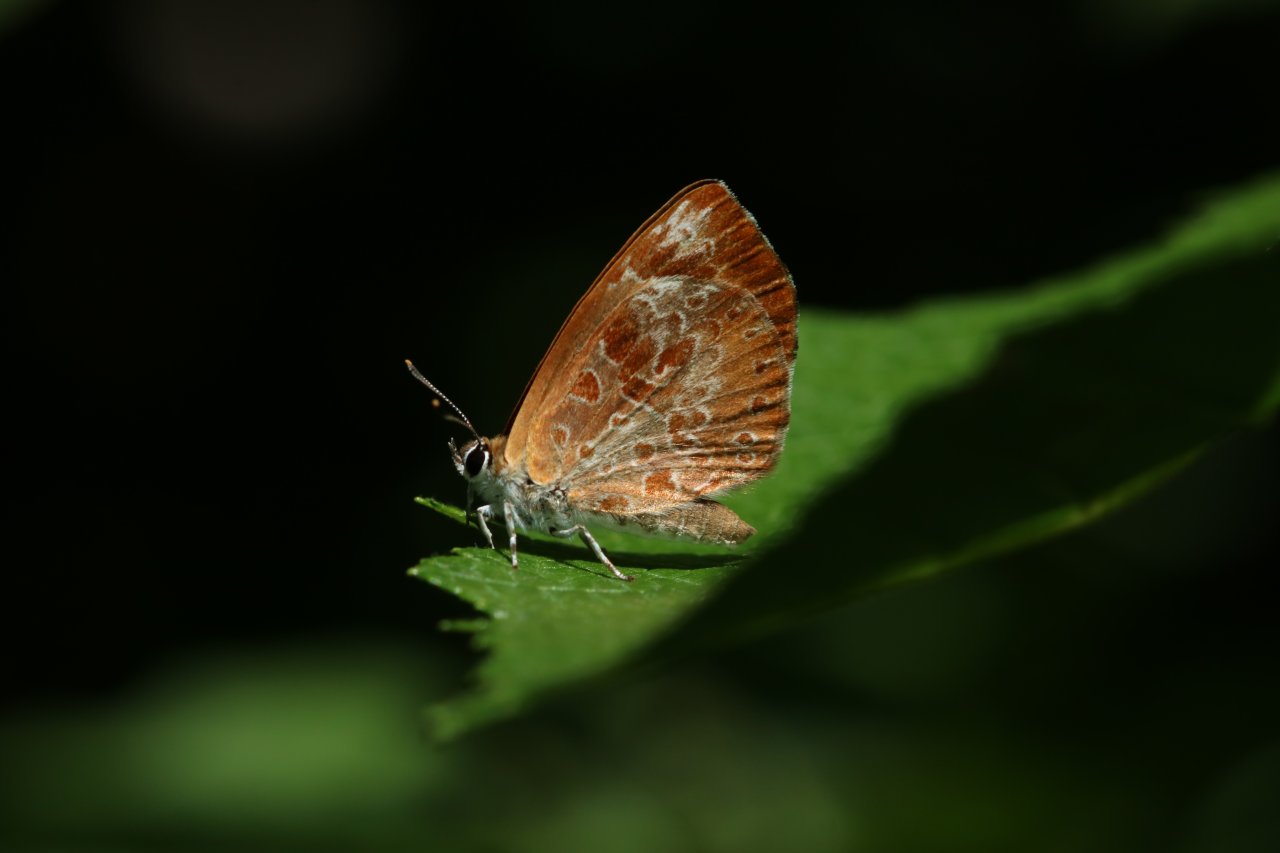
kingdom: Animalia
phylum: Arthropoda
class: Insecta
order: Lepidoptera
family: Lycaenidae
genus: Feniseca
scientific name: Feniseca tarquinius
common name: Harvester
